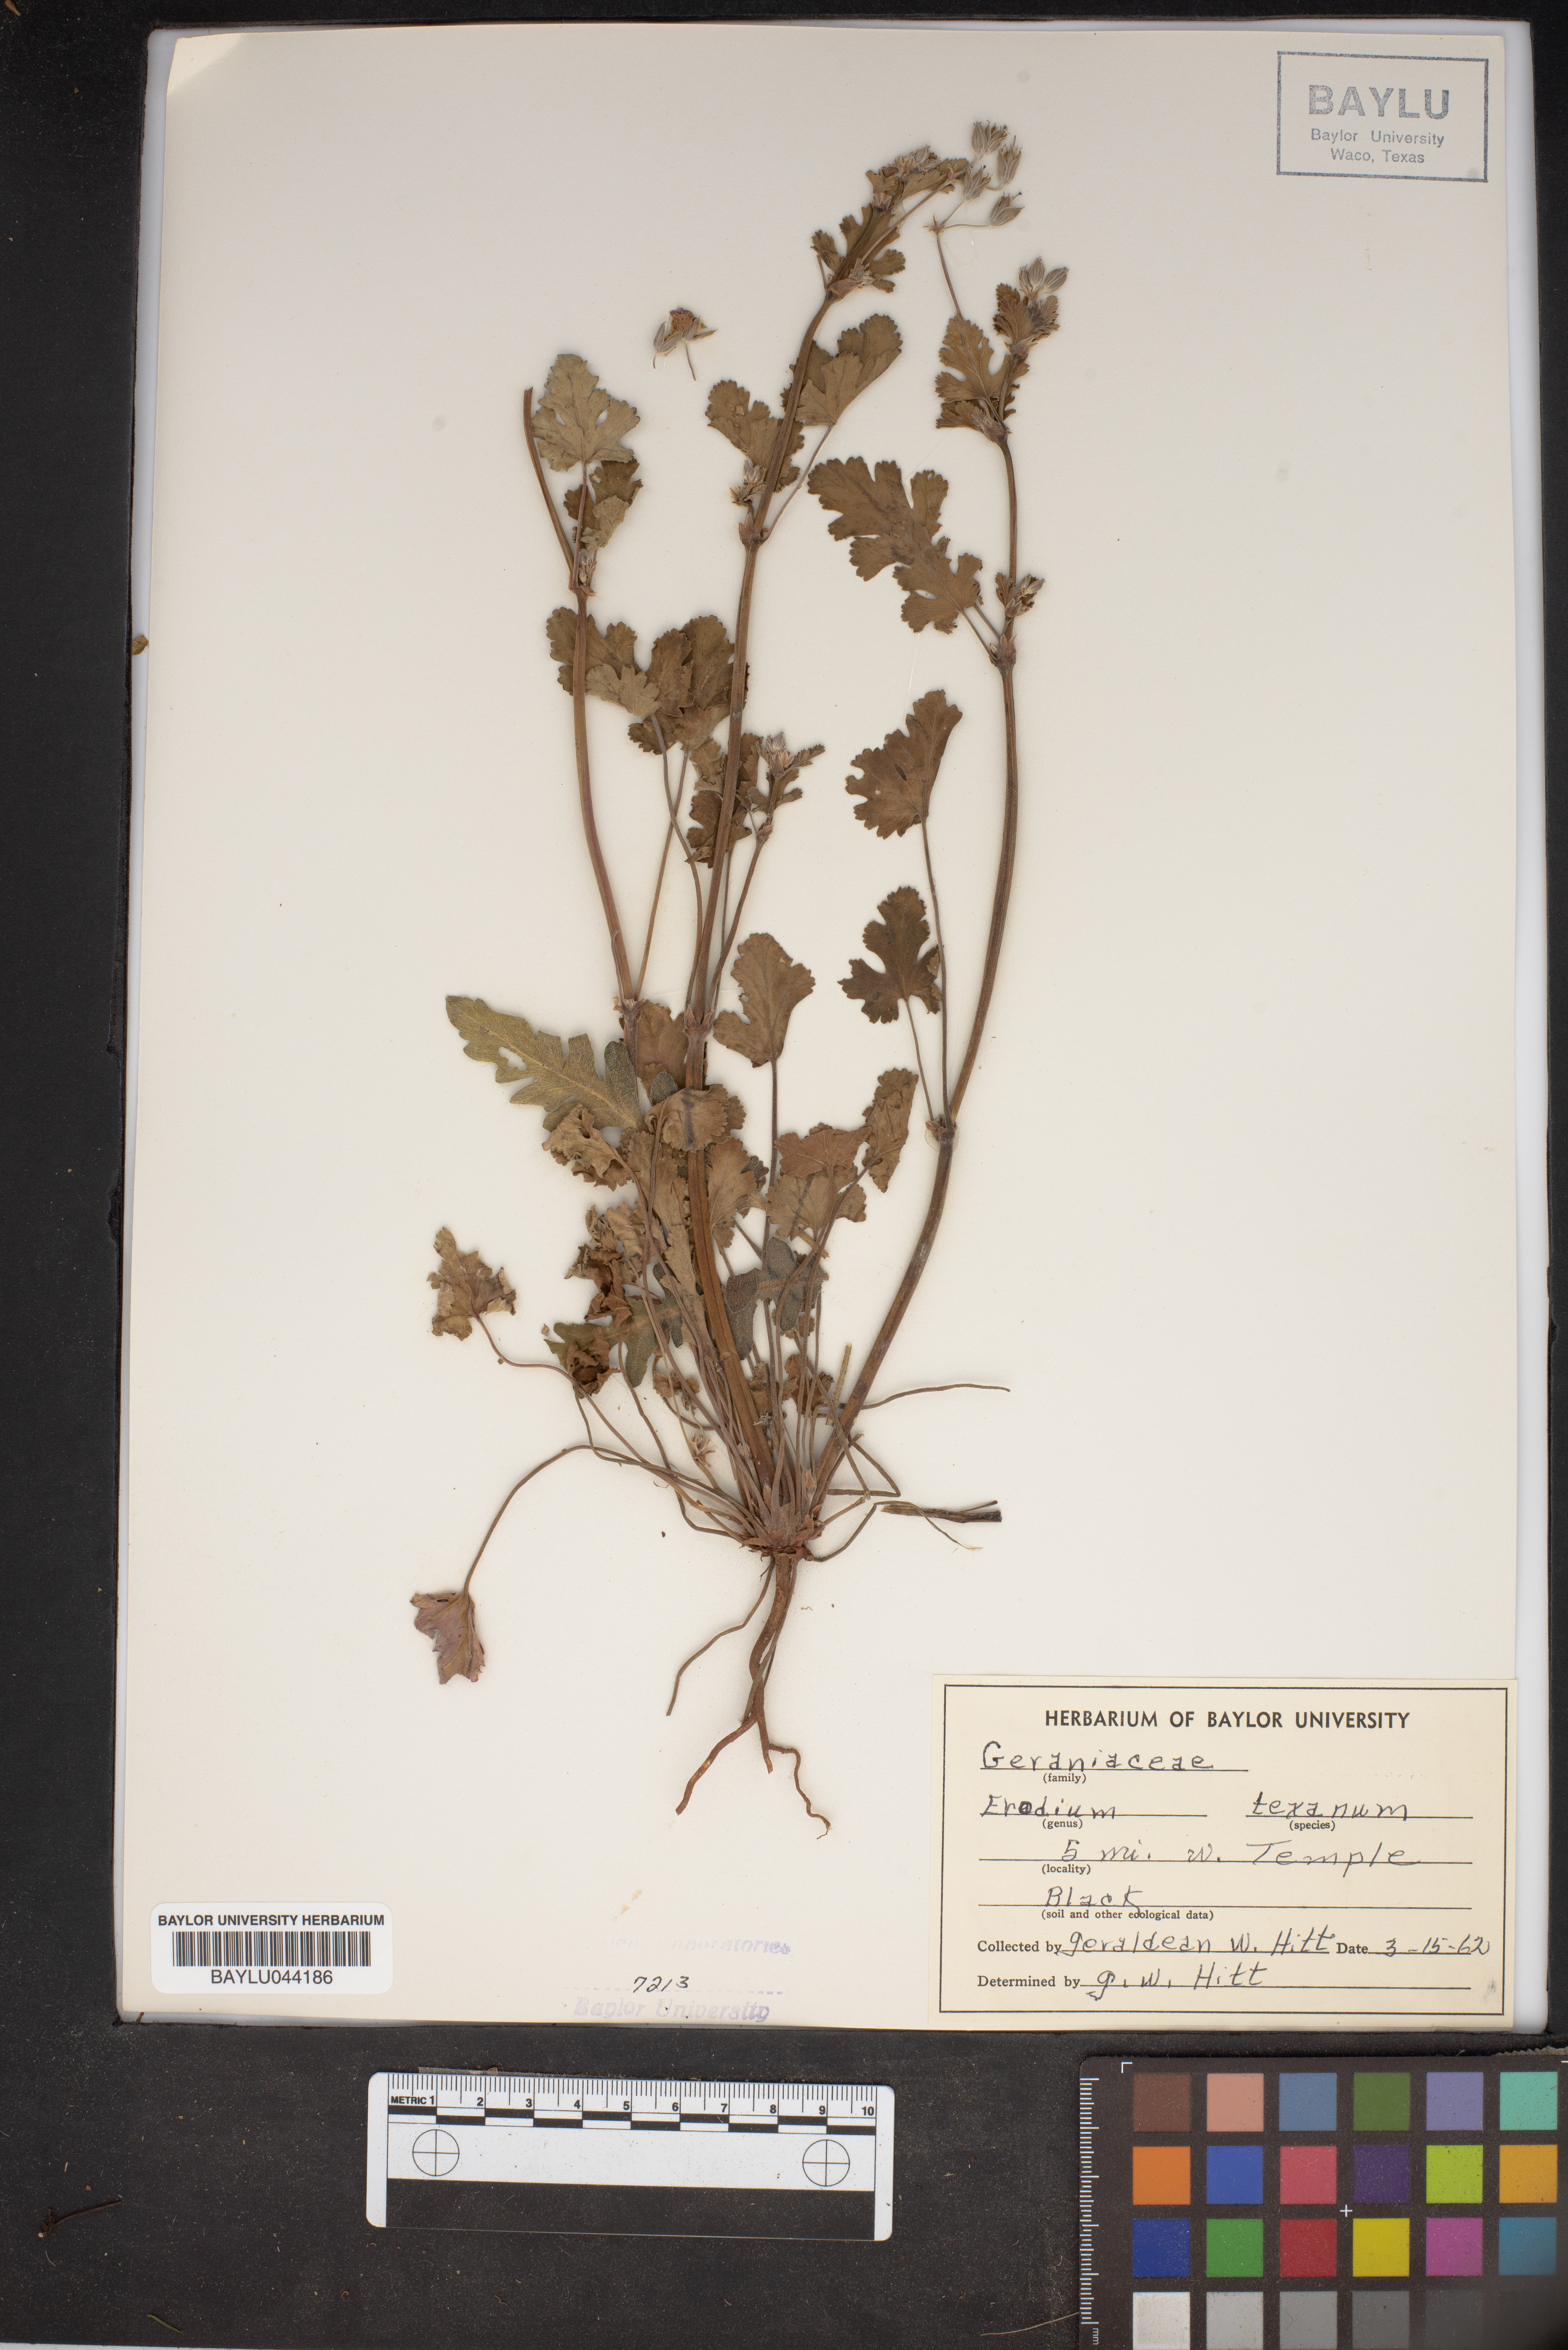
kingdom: Plantae
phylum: Tracheophyta
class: Magnoliopsida
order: Geraniales
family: Geraniaceae
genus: Erodium
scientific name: Erodium texanum
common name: Texas stork's-bill
